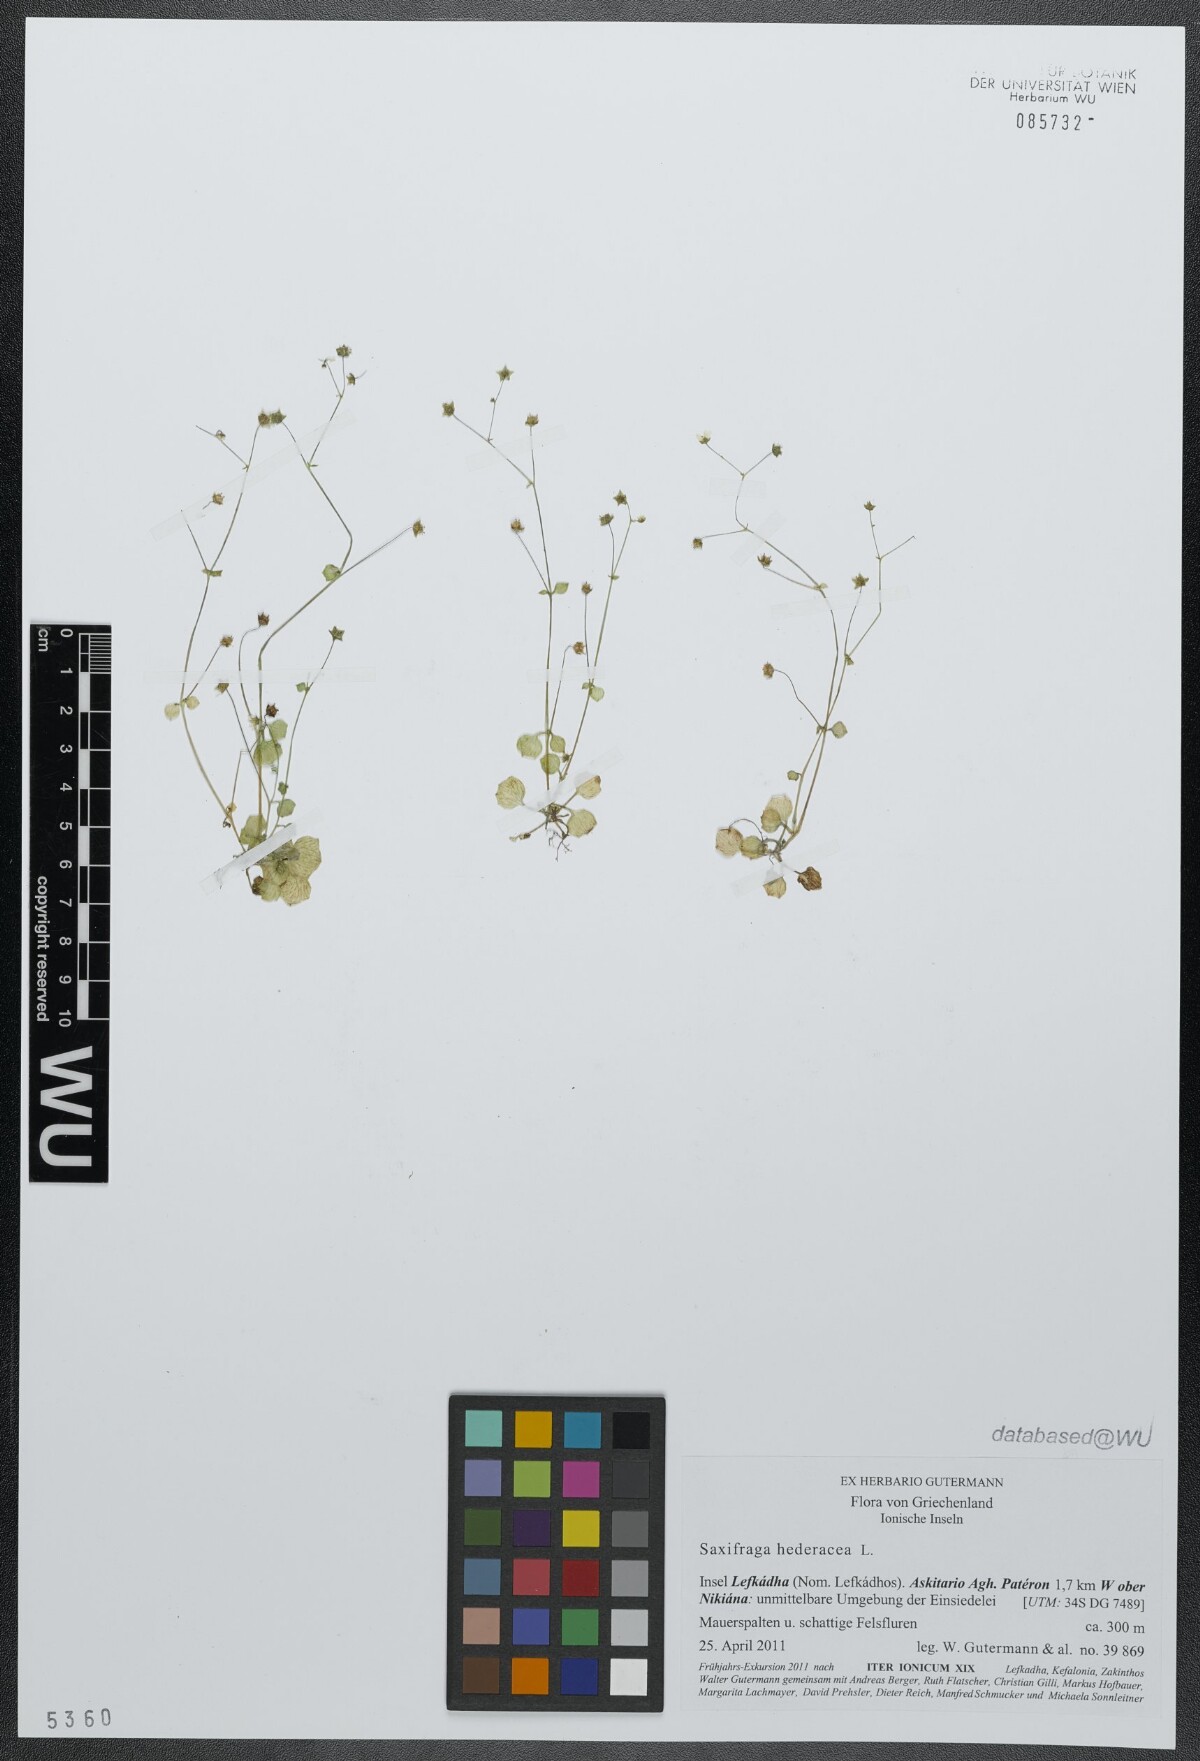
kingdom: Plantae
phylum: Tracheophyta
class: Magnoliopsida
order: Saxifragales
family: Saxifragaceae
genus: Saxifraga
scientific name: Saxifraga hederacea
